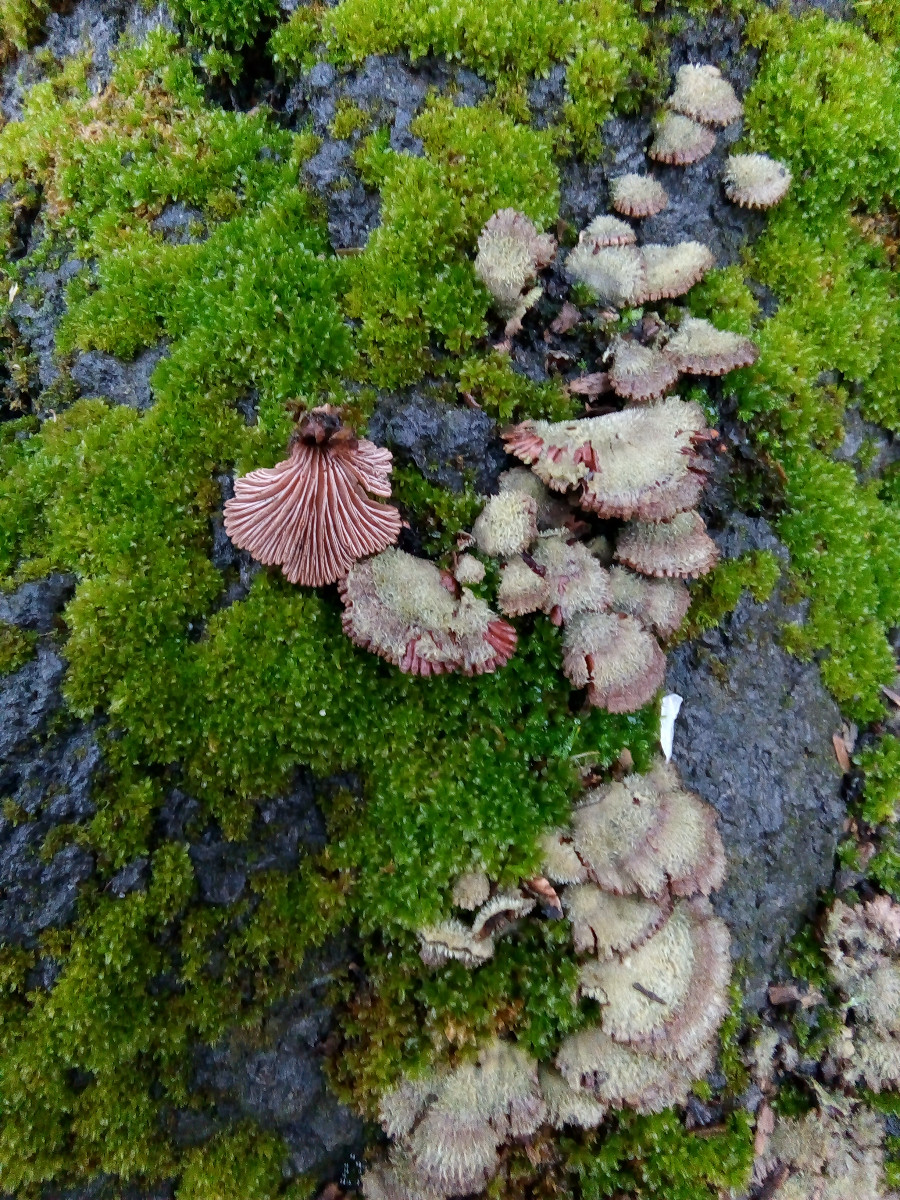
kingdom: Fungi
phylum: Basidiomycota
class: Agaricomycetes
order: Agaricales
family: Schizophyllaceae
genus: Schizophyllum
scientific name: Schizophyllum commune
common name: kløvblad
